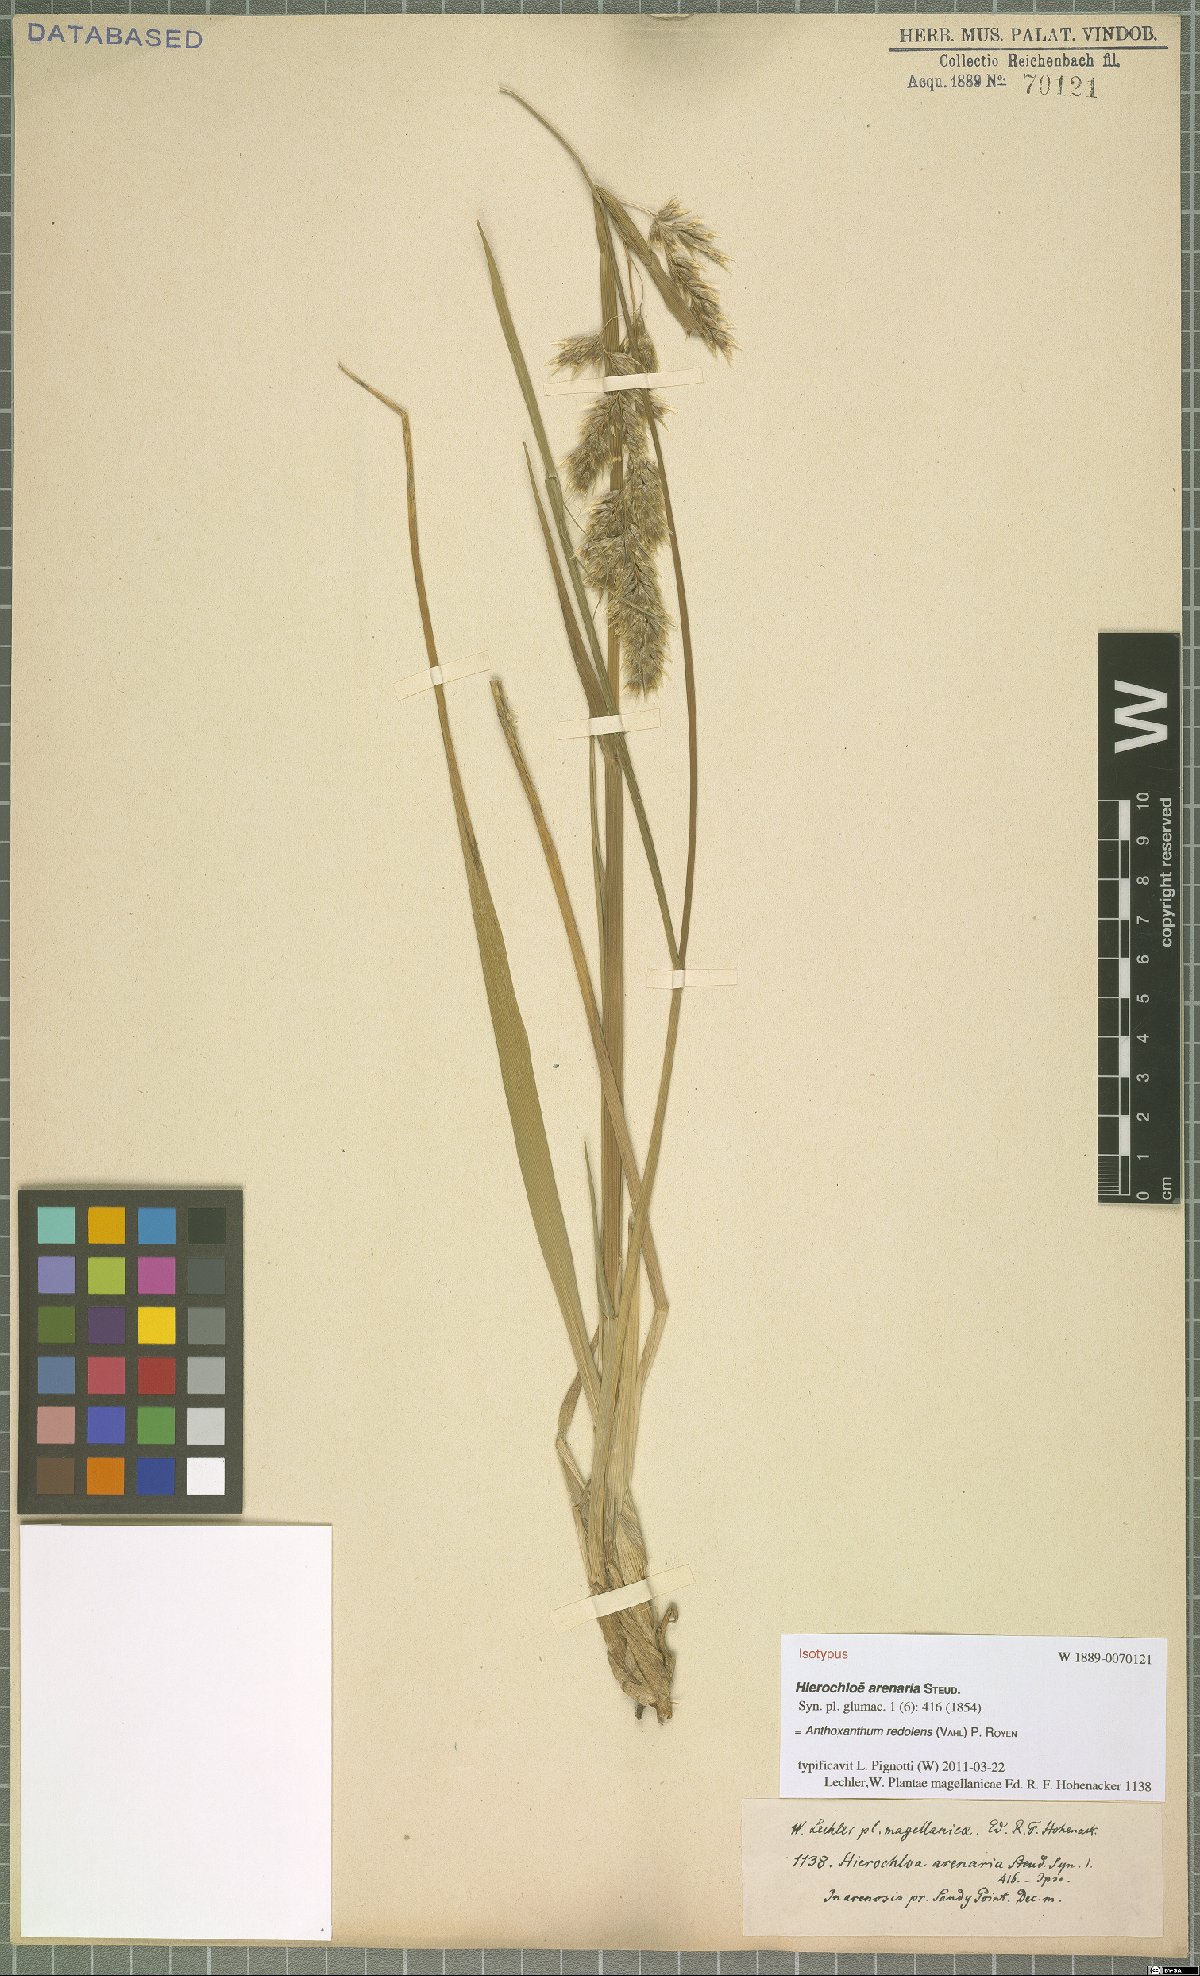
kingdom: Plantae
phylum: Tracheophyta
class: Liliopsida
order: Poales
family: Poaceae
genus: Anthoxanthum
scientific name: Anthoxanthum redolens
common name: Sweet holy grass
